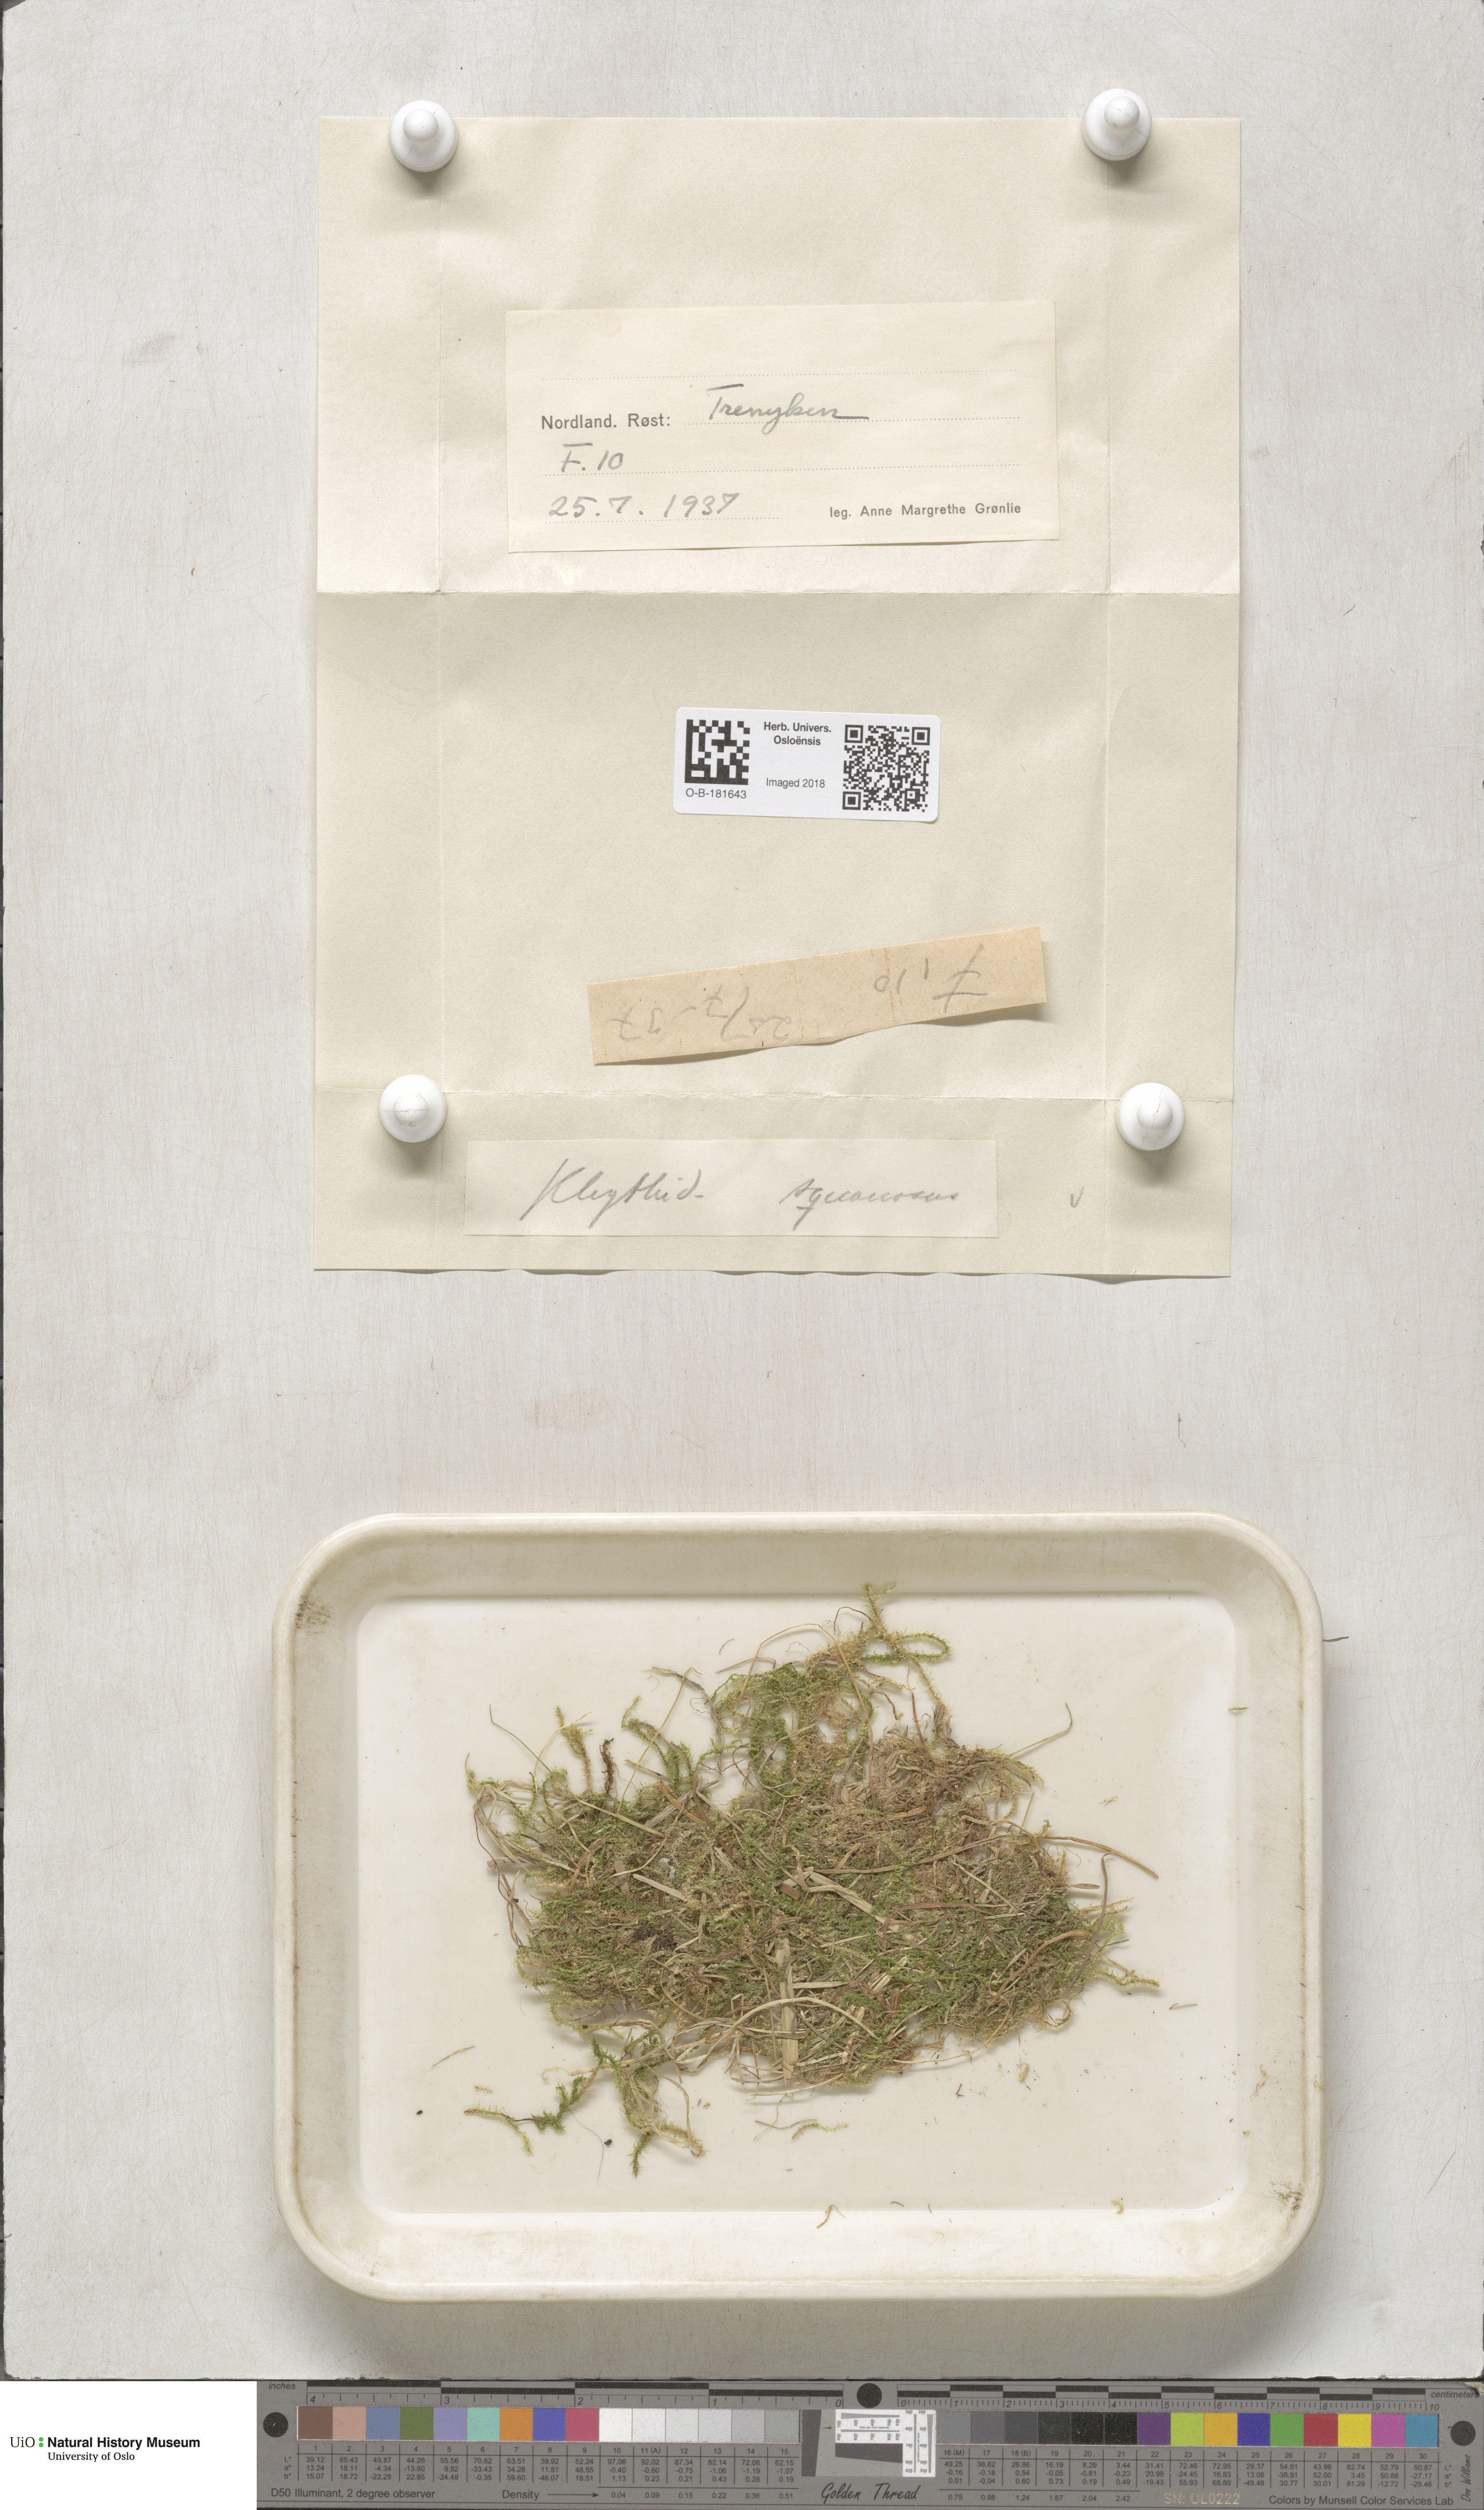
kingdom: Plantae
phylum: Bryophyta
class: Bryopsida
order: Hypnales
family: Hylocomiaceae
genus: Rhytidiadelphus
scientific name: Rhytidiadelphus squarrosus
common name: Springy turf-moss
